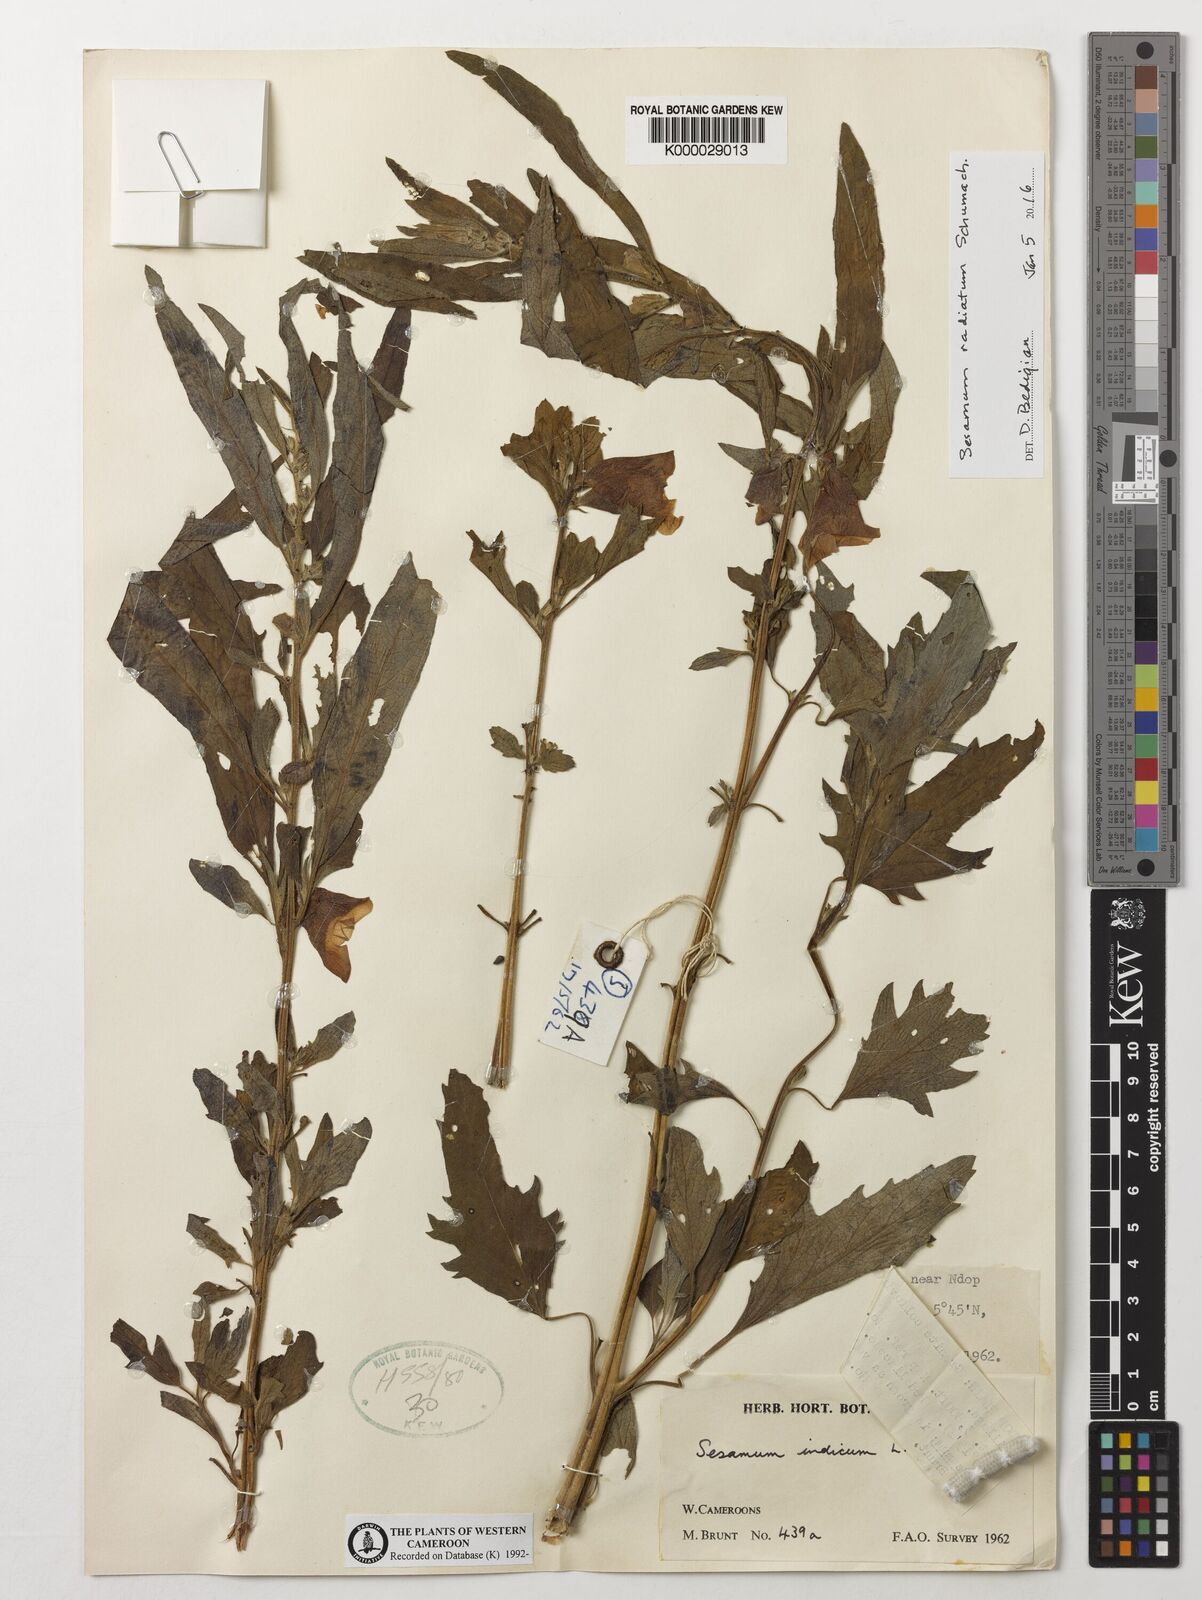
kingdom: Plantae
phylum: Tracheophyta
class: Magnoliopsida
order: Lamiales
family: Pedaliaceae
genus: Sesamum
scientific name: Sesamum indicum
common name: Sesame
